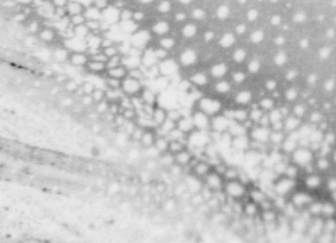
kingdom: Animalia
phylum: Chordata
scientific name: Chordata
